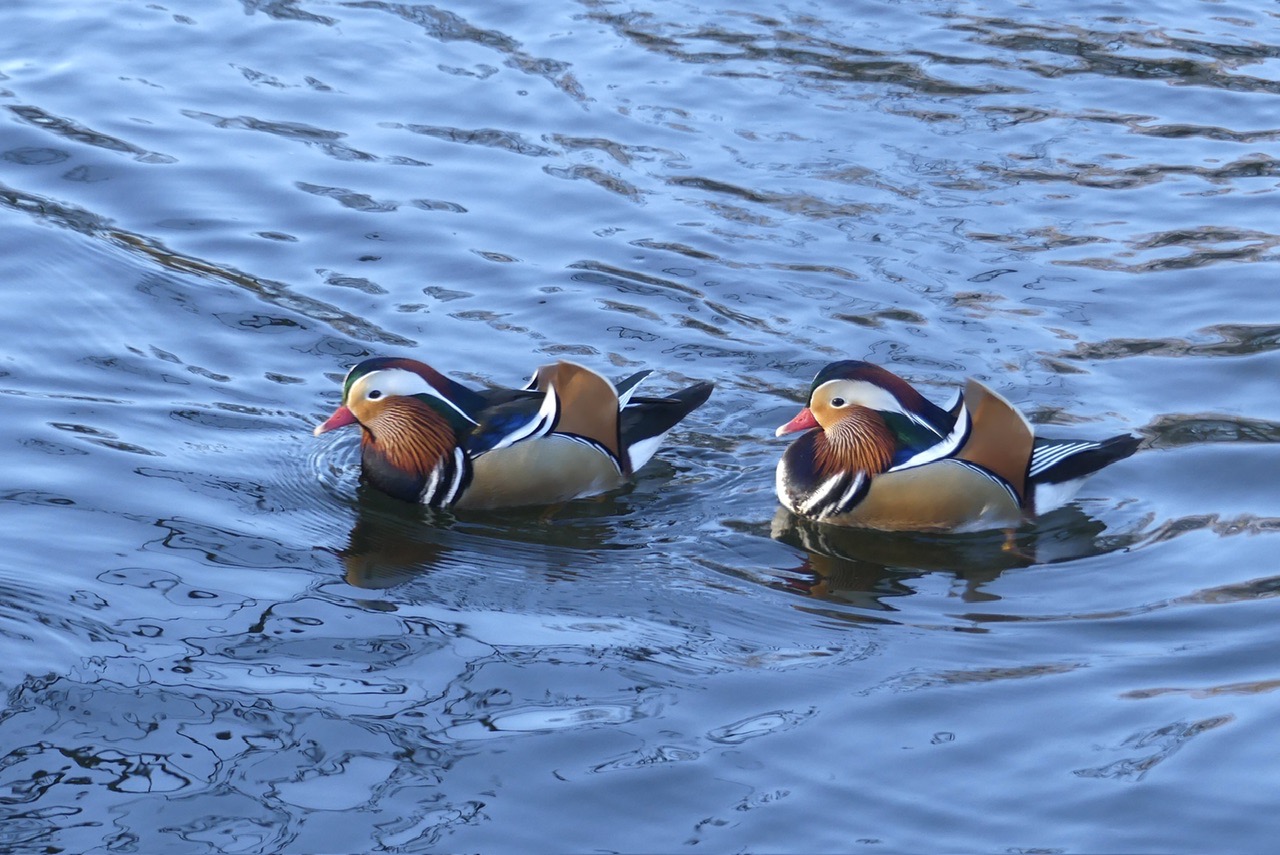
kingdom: Animalia
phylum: Chordata
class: Aves
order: Anseriformes
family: Anatidae
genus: Aix
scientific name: Aix galericulata
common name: Mandarinand
